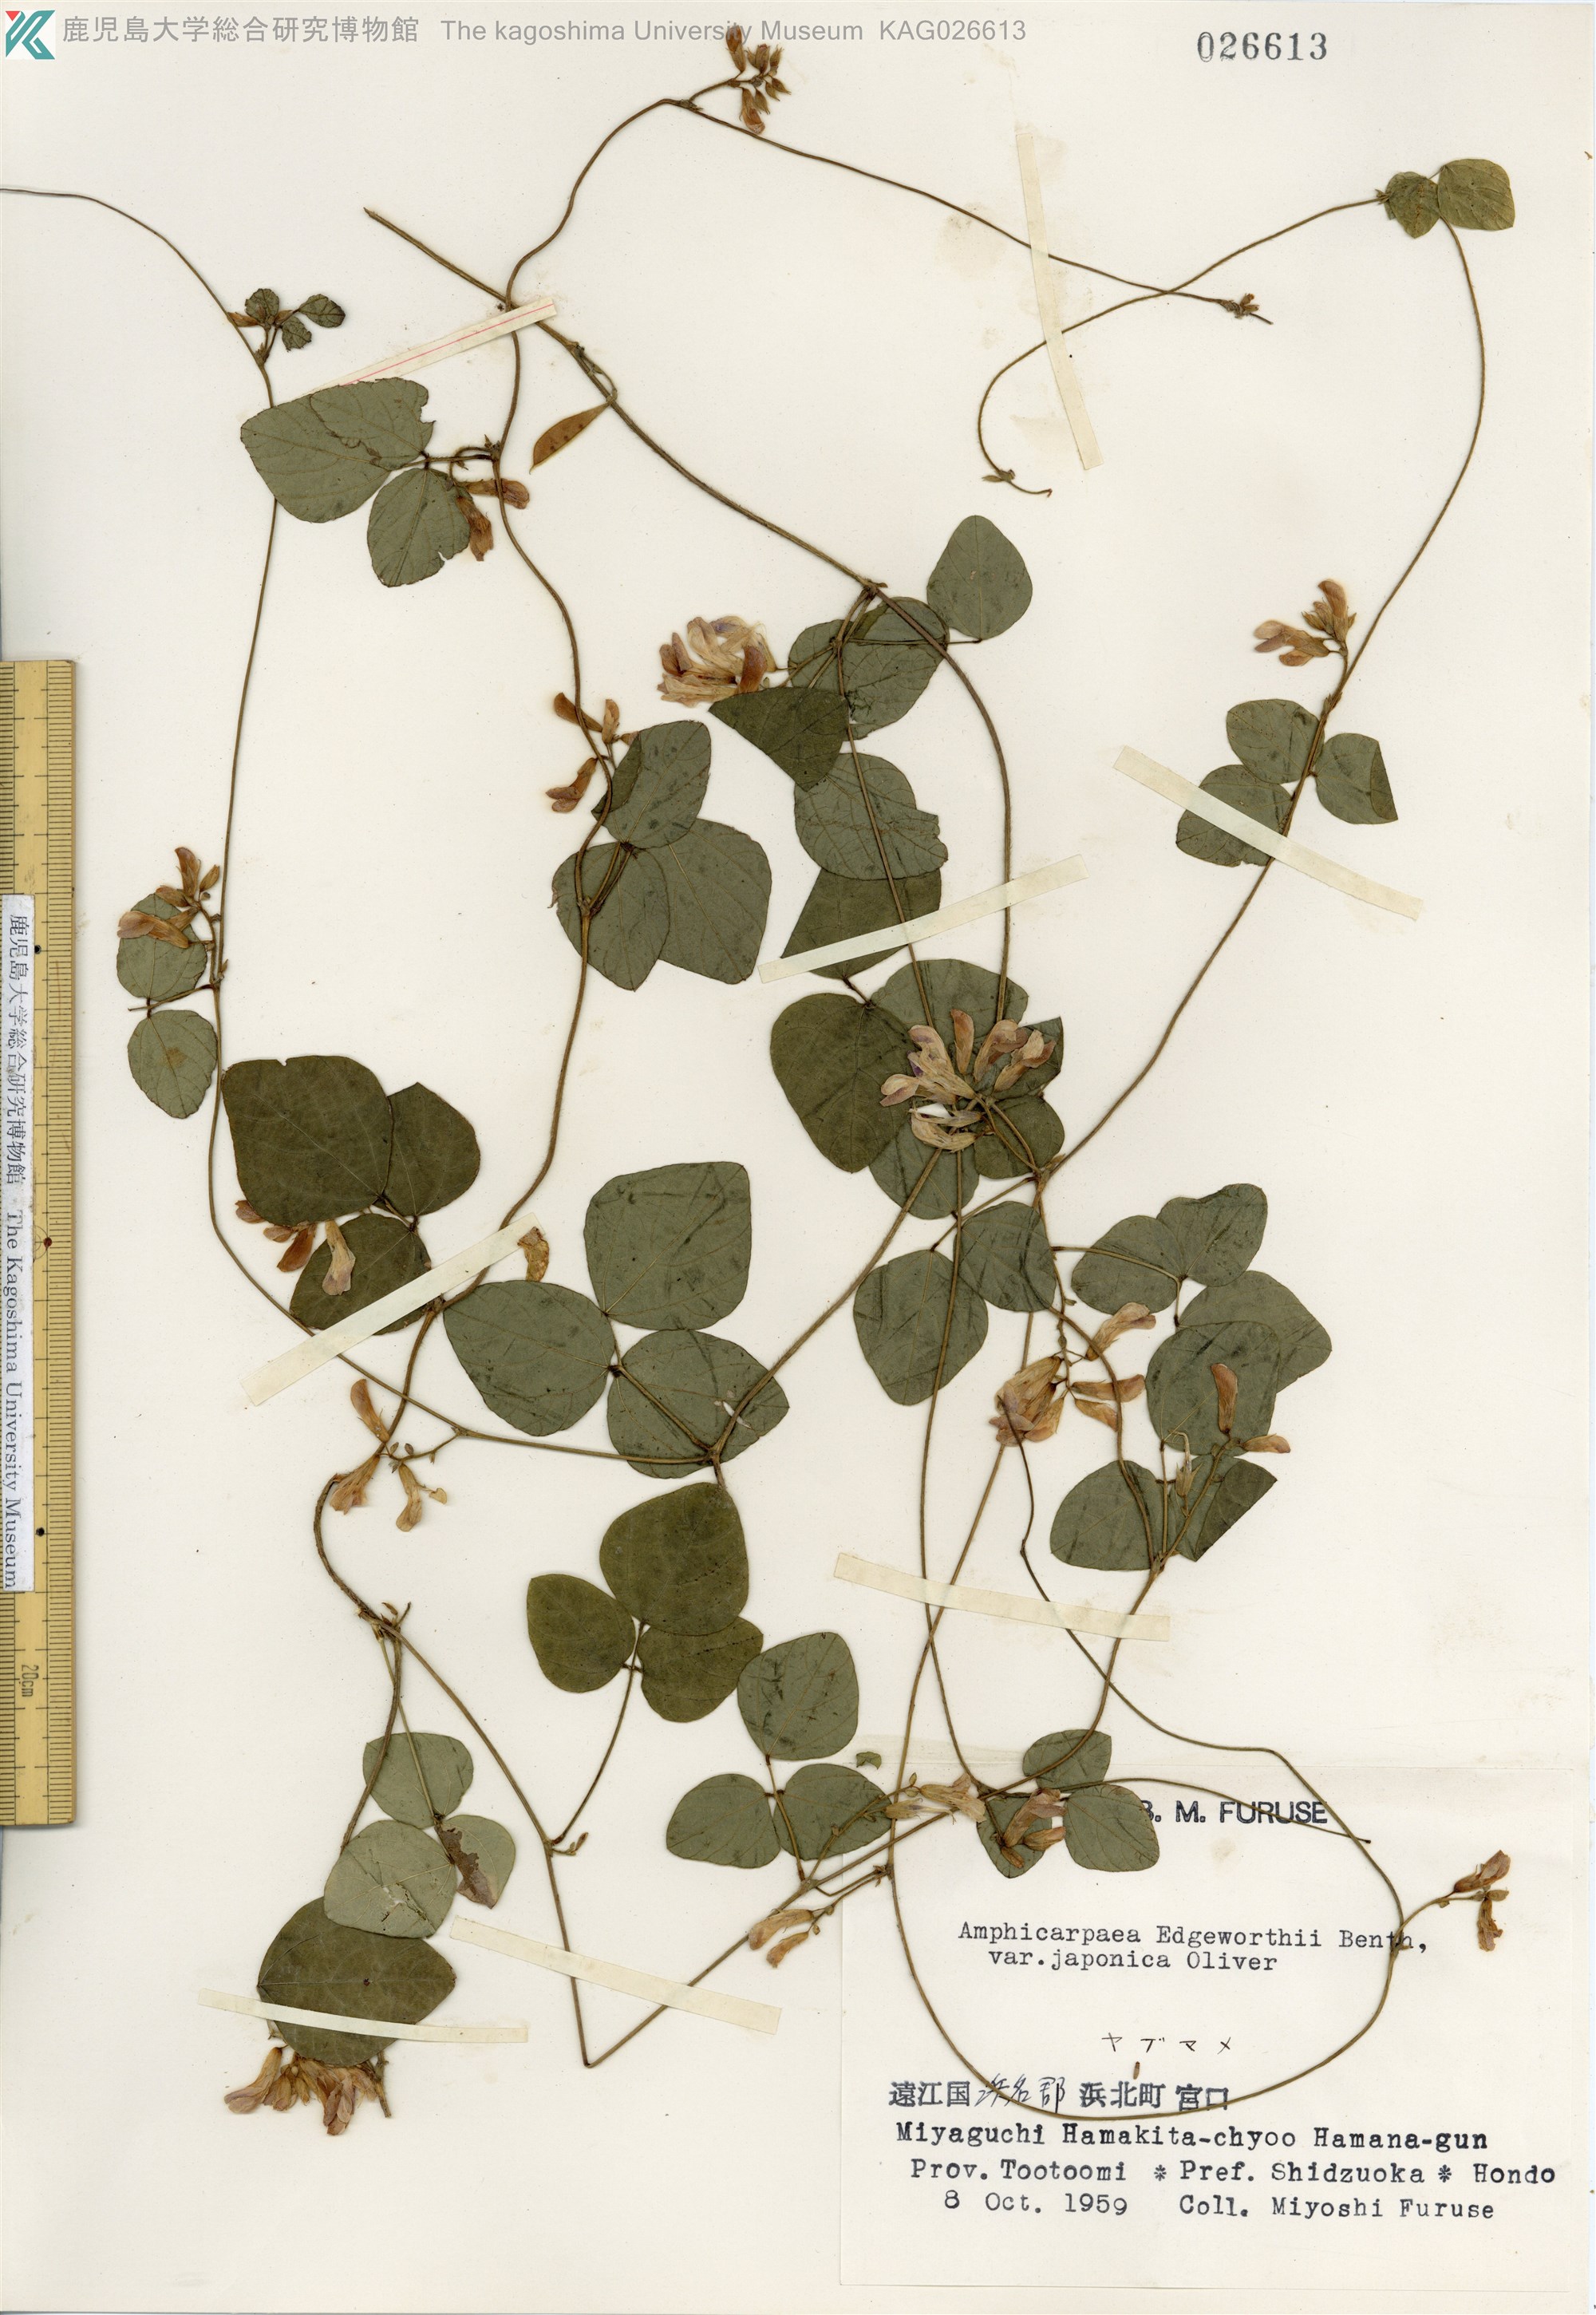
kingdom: Plantae
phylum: Tracheophyta
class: Magnoliopsida
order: Fabales
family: Fabaceae
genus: Amphicarpaea
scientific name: Amphicarpaea edgeworthii
